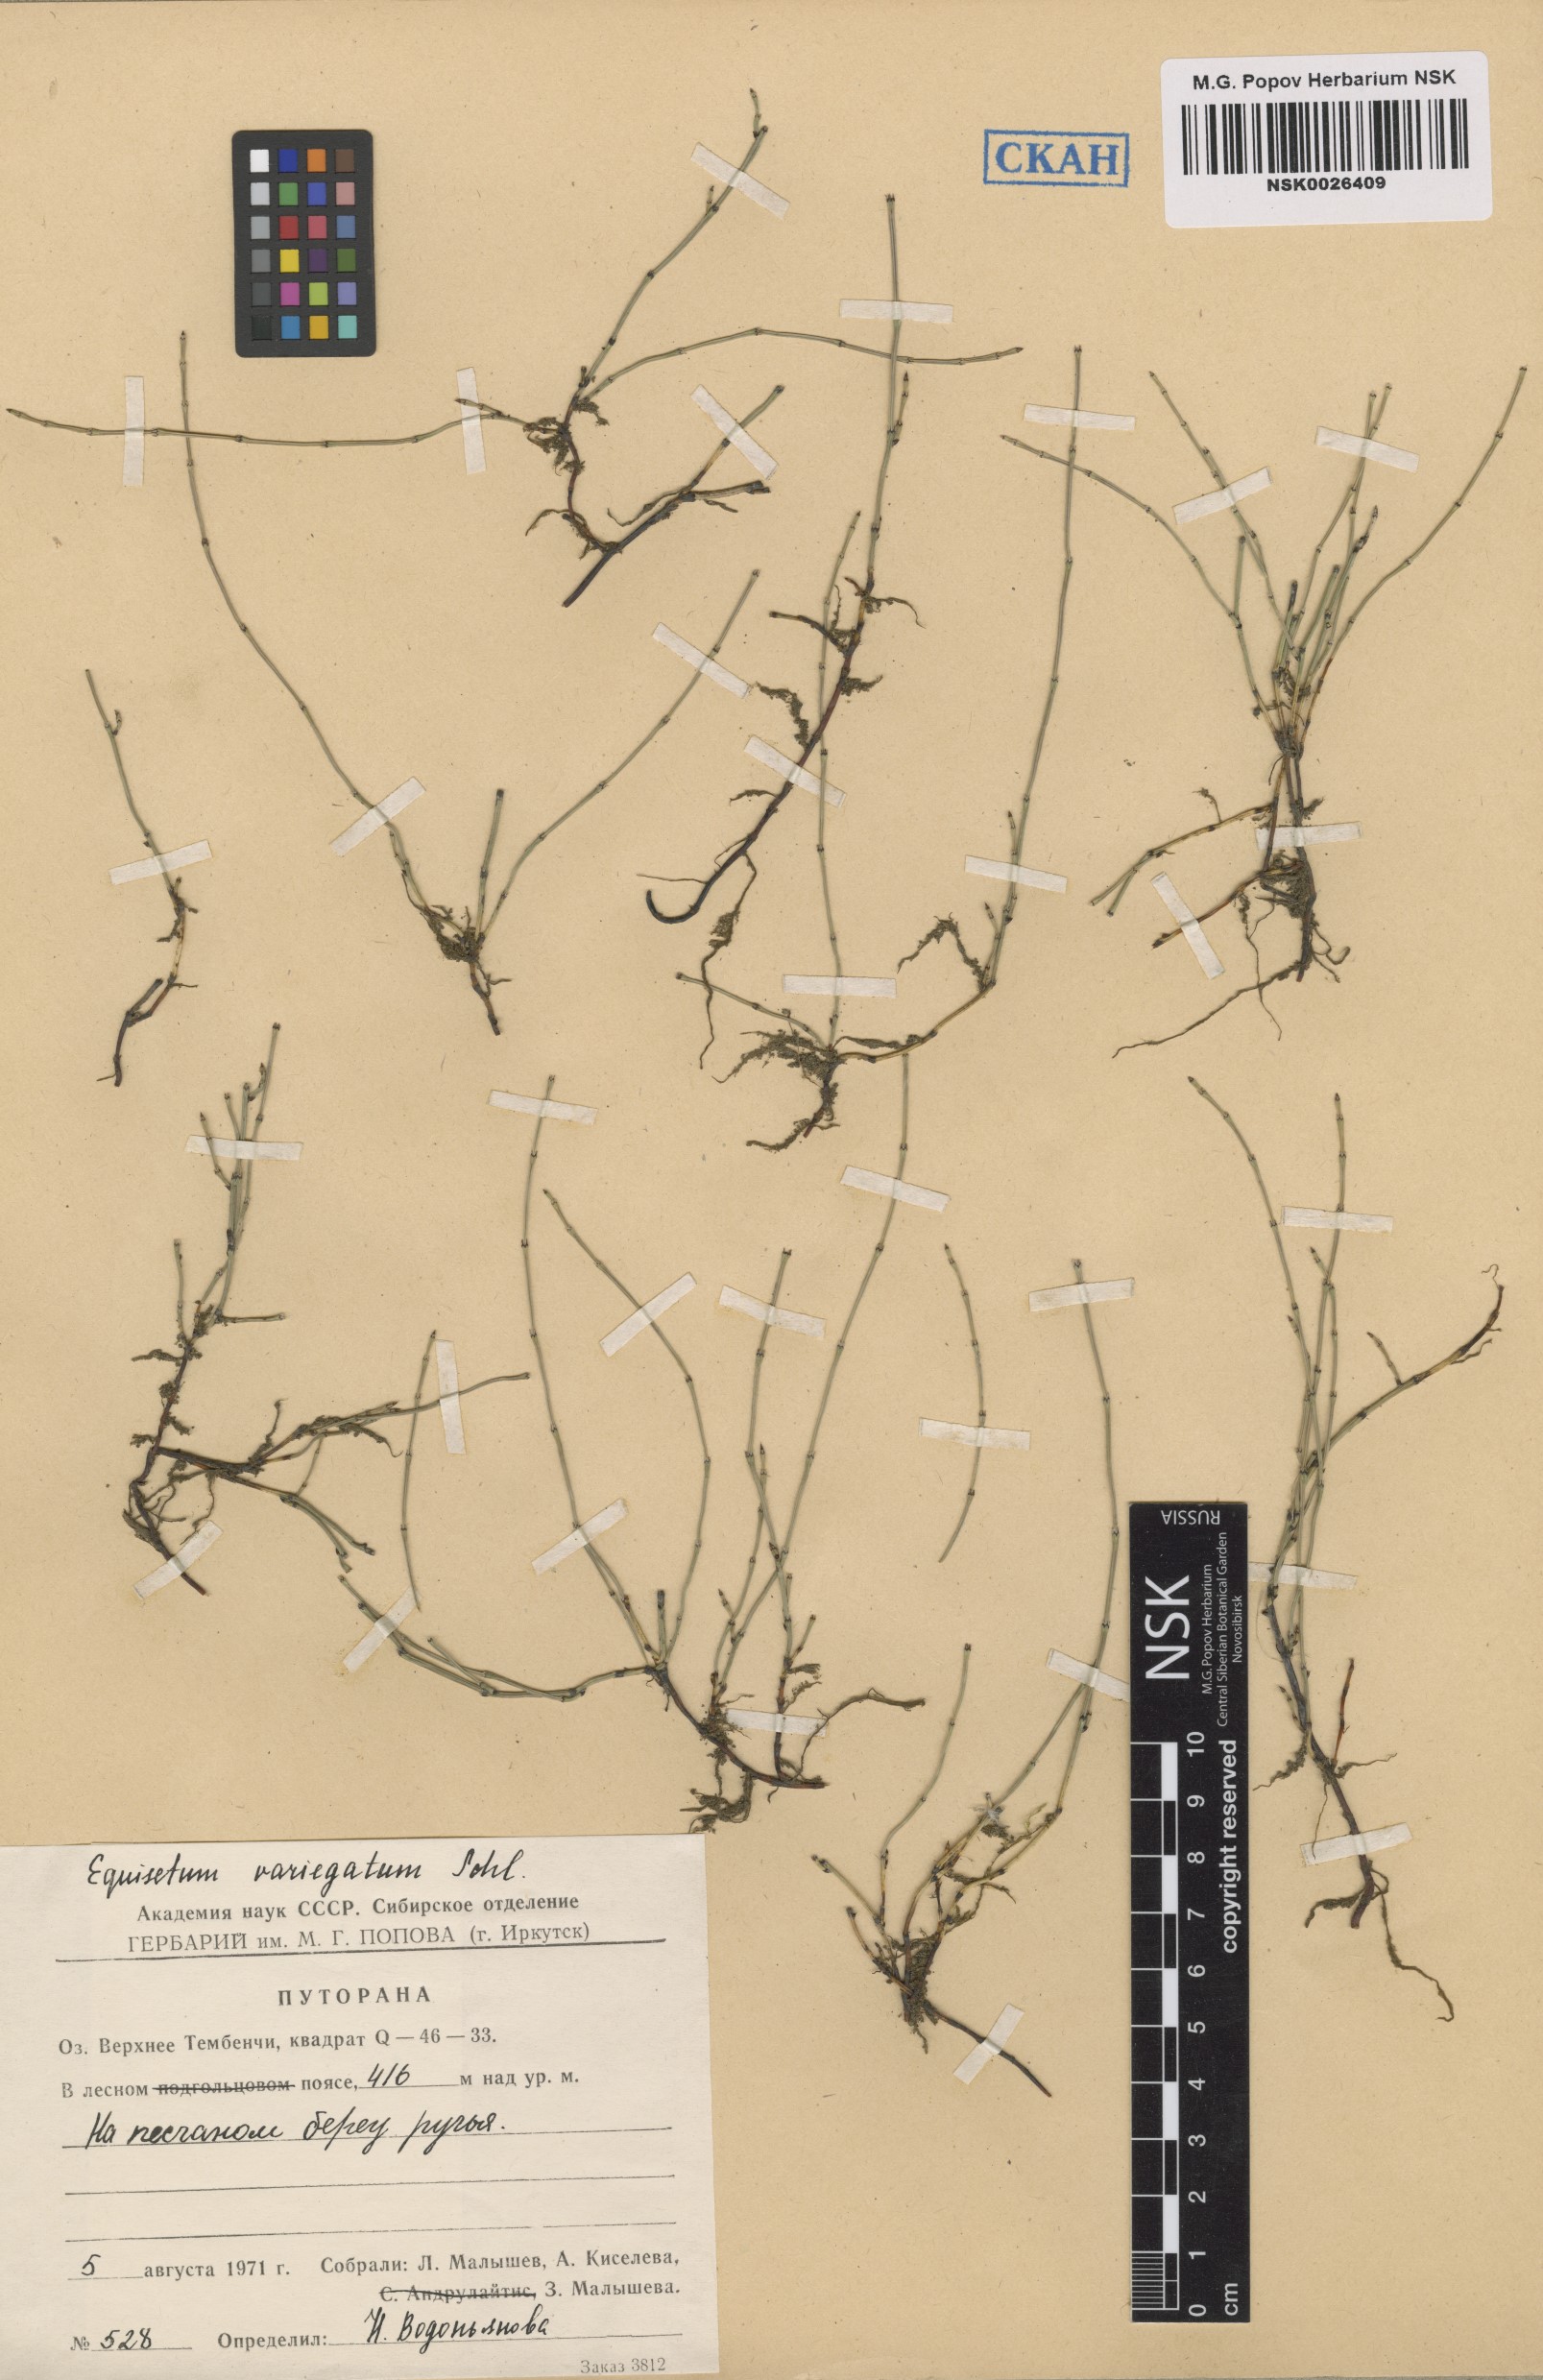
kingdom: Plantae
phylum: Tracheophyta
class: Polypodiopsida
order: Equisetales
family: Equisetaceae
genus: Equisetum
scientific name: Equisetum variegatum
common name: Variegated horsetail
